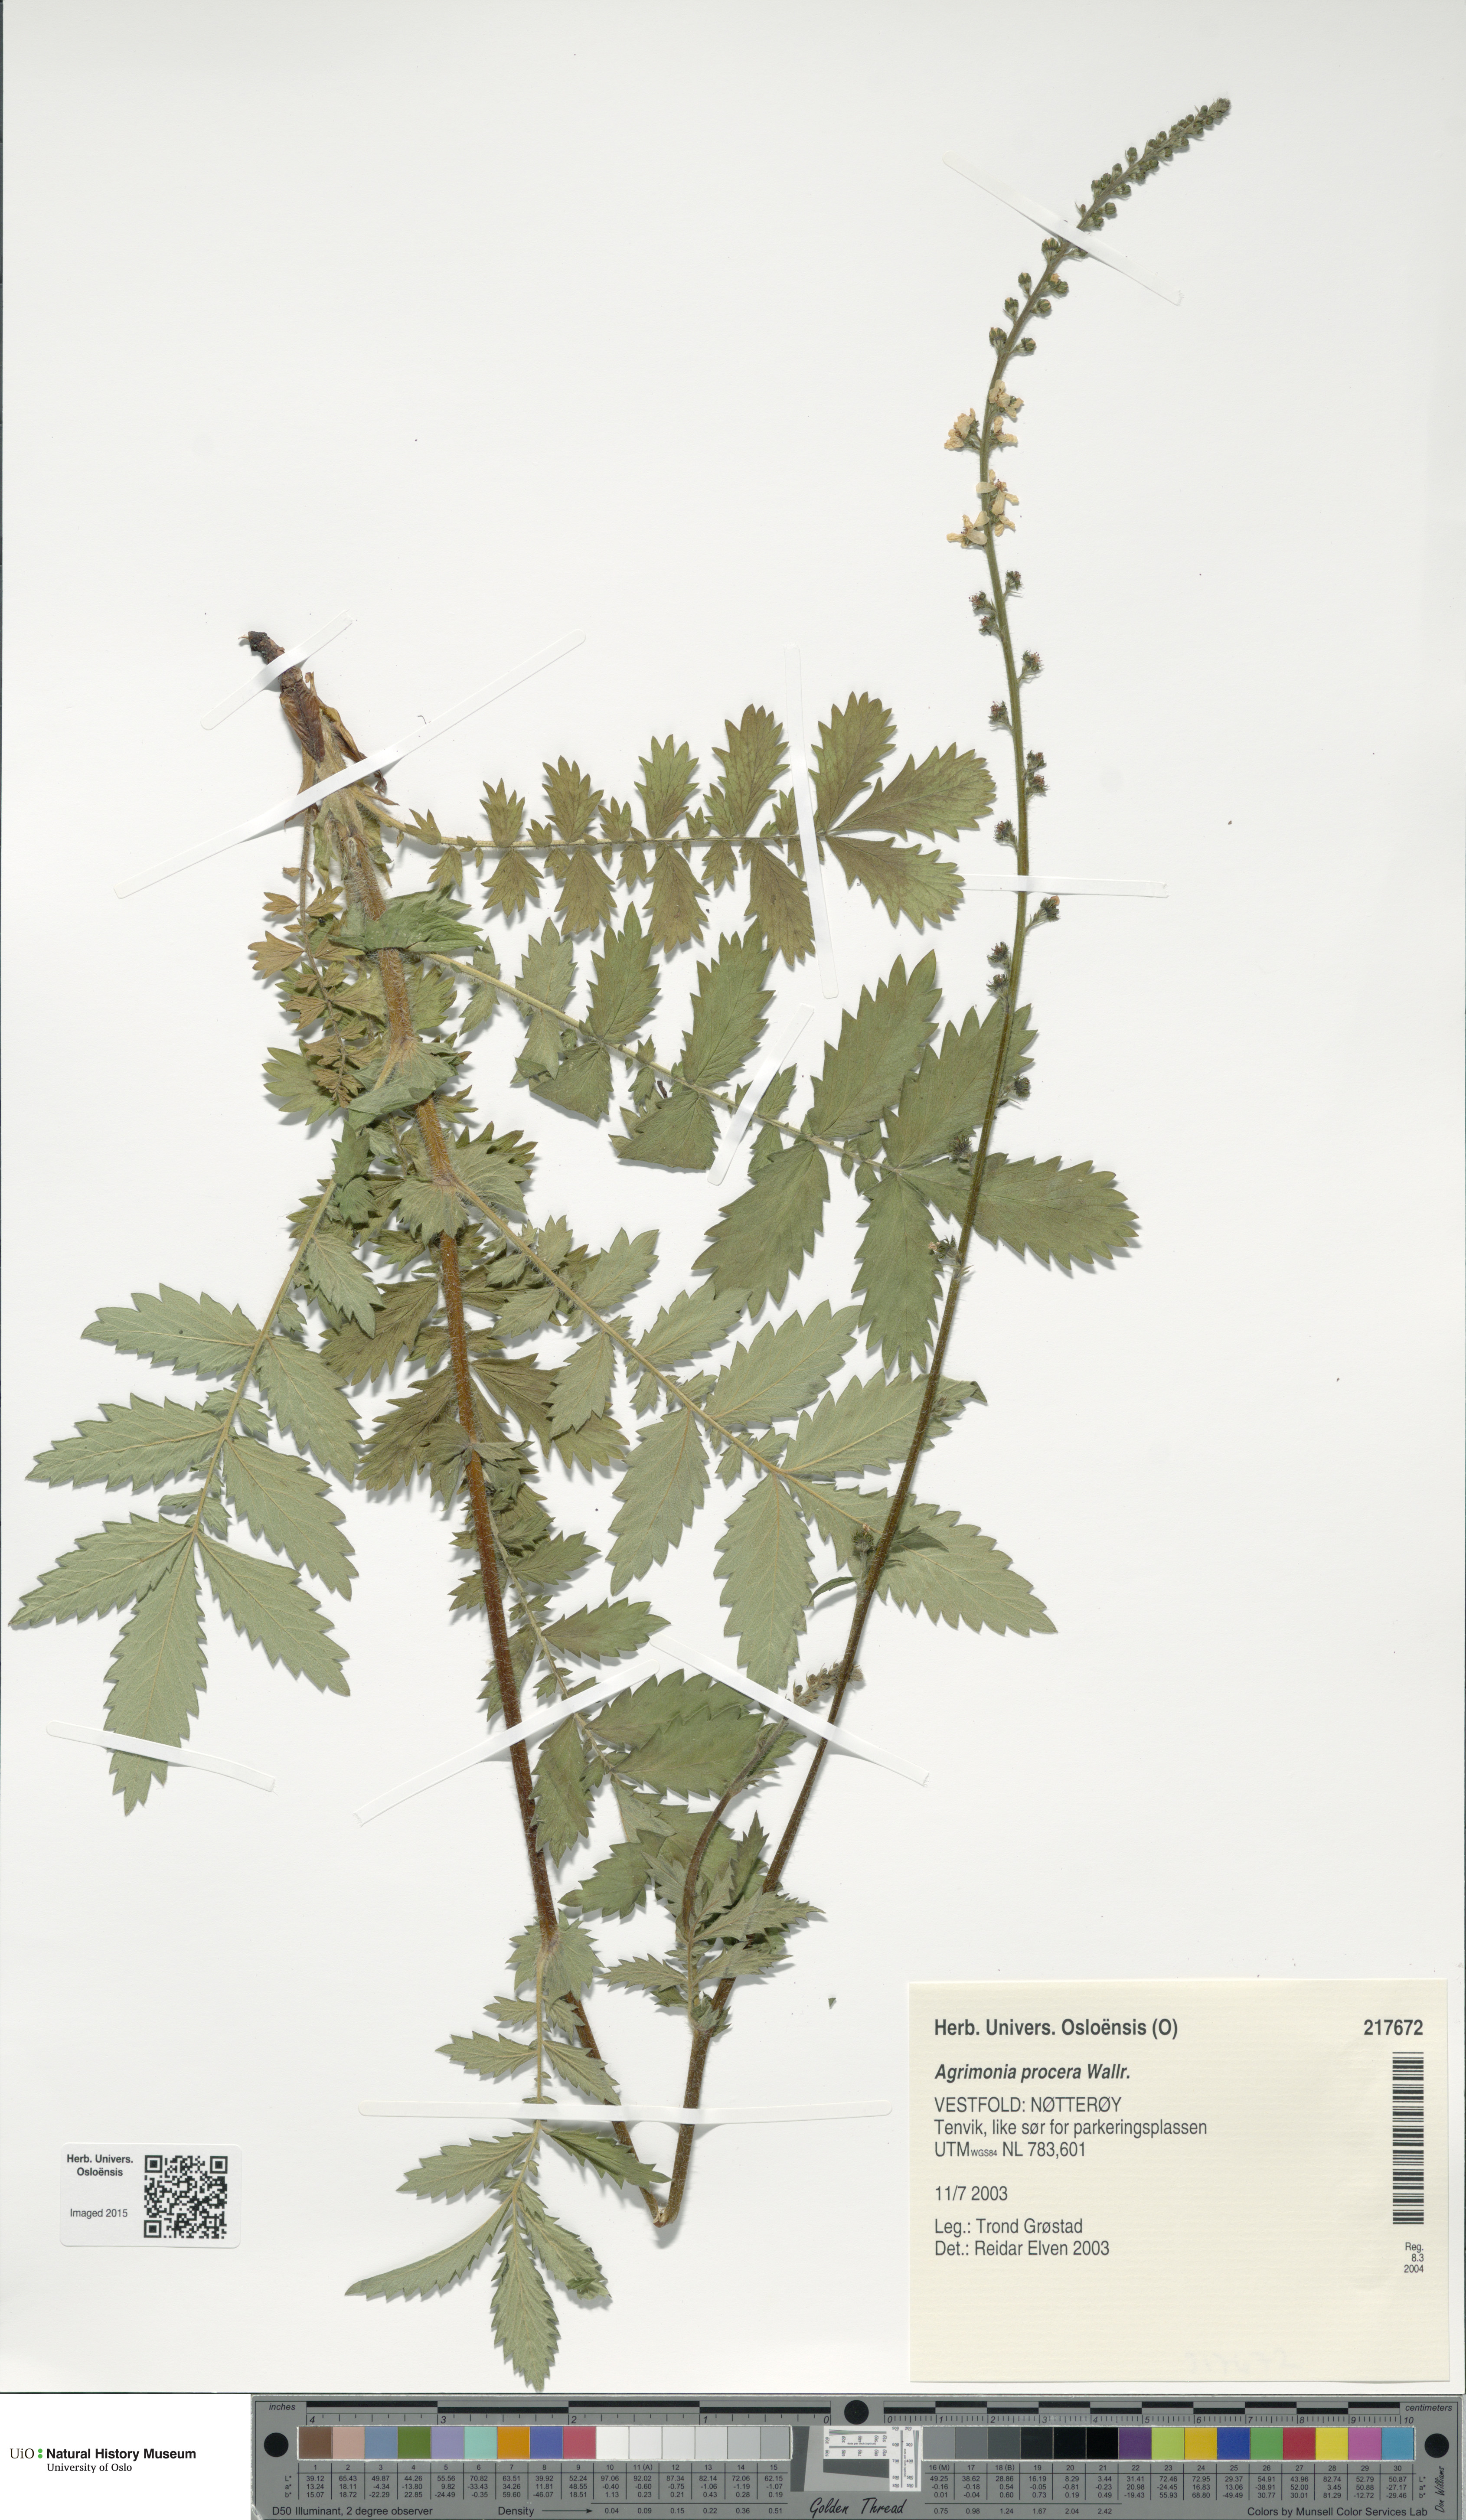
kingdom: Plantae
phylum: Tracheophyta
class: Magnoliopsida
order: Rosales
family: Rosaceae
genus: Agrimonia
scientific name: Agrimonia procera
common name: Fragrant agrimony
